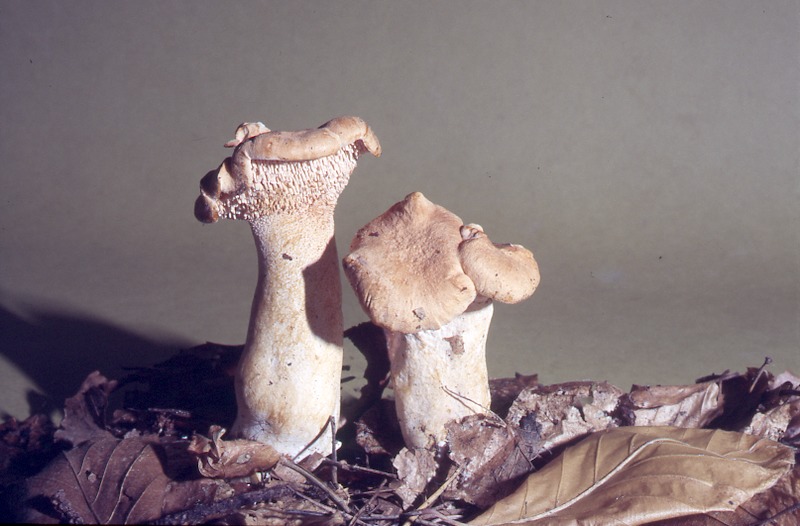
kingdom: Fungi
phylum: Basidiomycota
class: Agaricomycetes
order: Cantharellales
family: Hydnaceae
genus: Hydnum
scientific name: Hydnum rufescens
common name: Terracotta hedgehog
